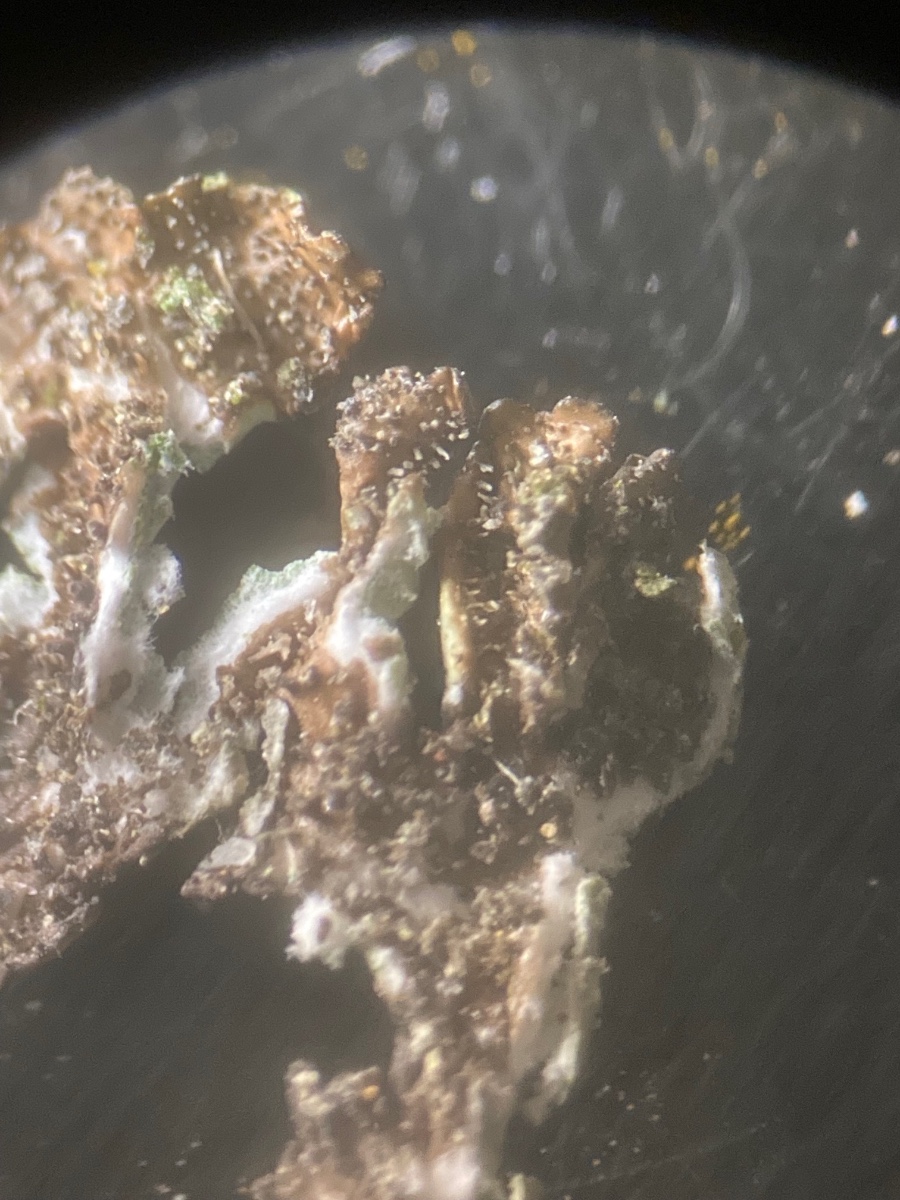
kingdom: Fungi
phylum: Ascomycota
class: Lecanoromycetes
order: Lecanorales
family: Parmeliaceae
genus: Xanthoparmelia
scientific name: Xanthoparmelia mougeotii
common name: liden skållav
